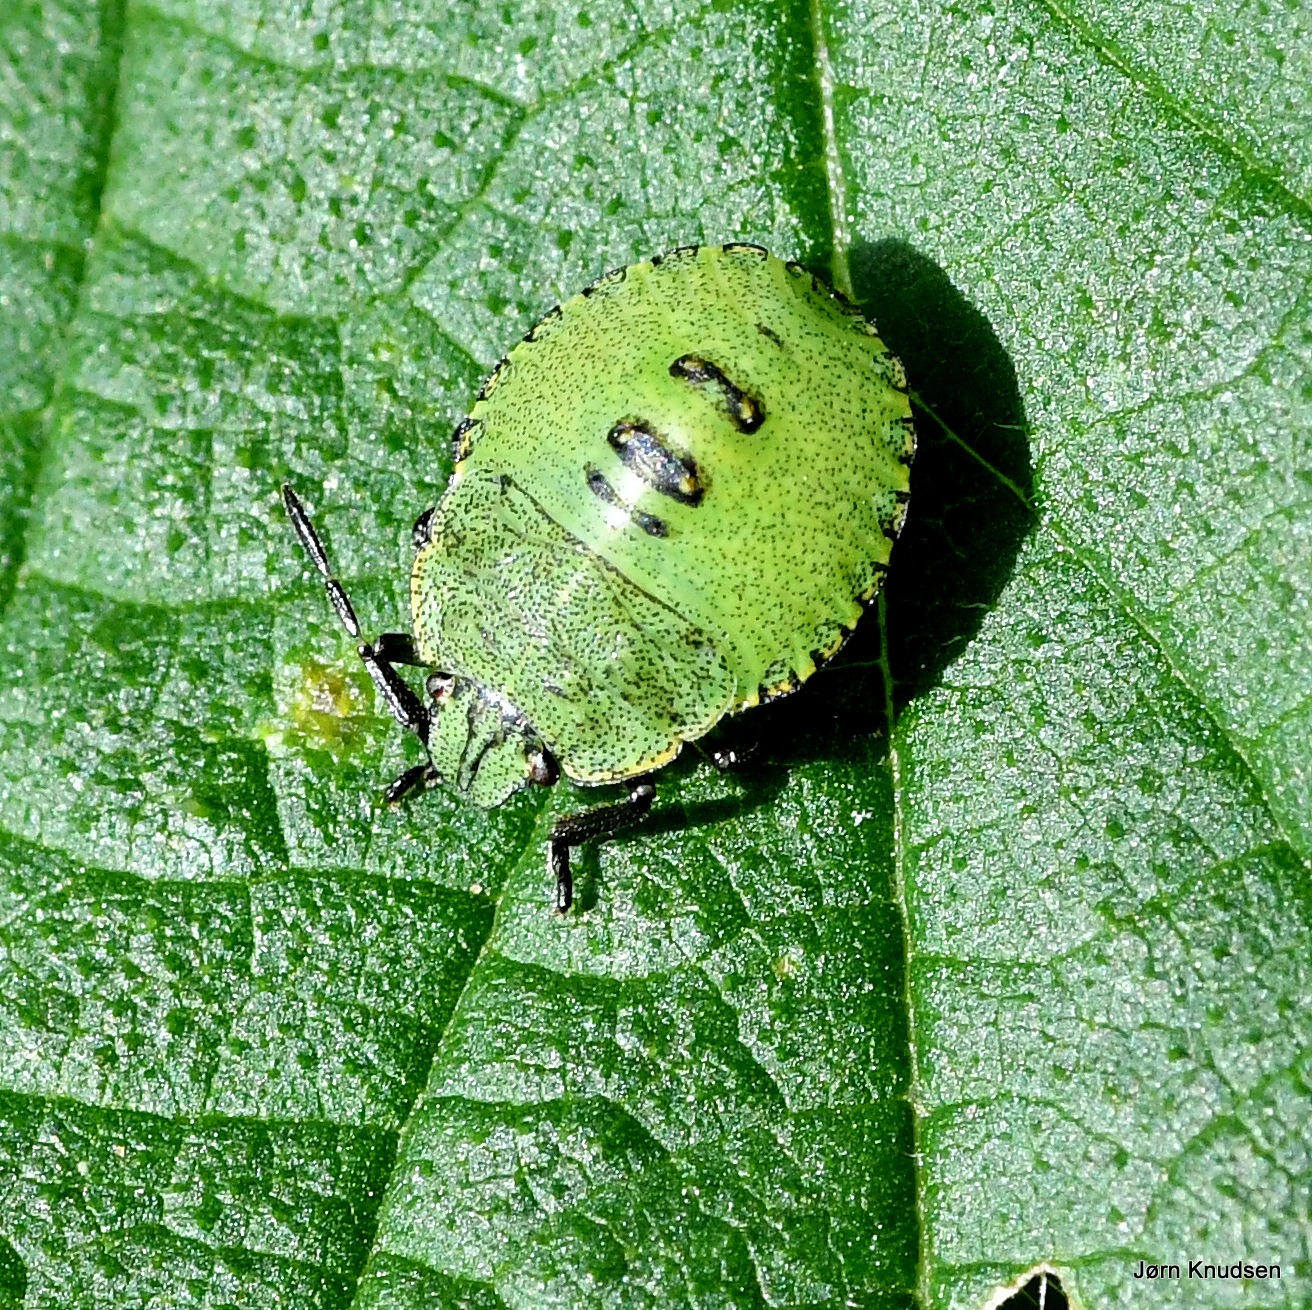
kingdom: Animalia
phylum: Arthropoda
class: Insecta
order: Hemiptera
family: Pentatomidae
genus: Palomena
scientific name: Palomena prasina
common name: Grøn bredtæge
